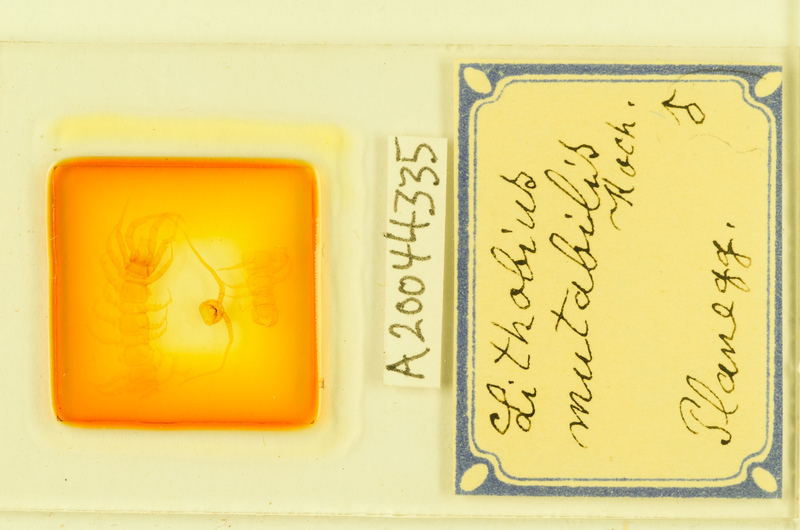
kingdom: Animalia
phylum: Arthropoda
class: Chilopoda
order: Lithobiomorpha
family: Lithobiidae
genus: Lithobius
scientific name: Lithobius mutabilis
